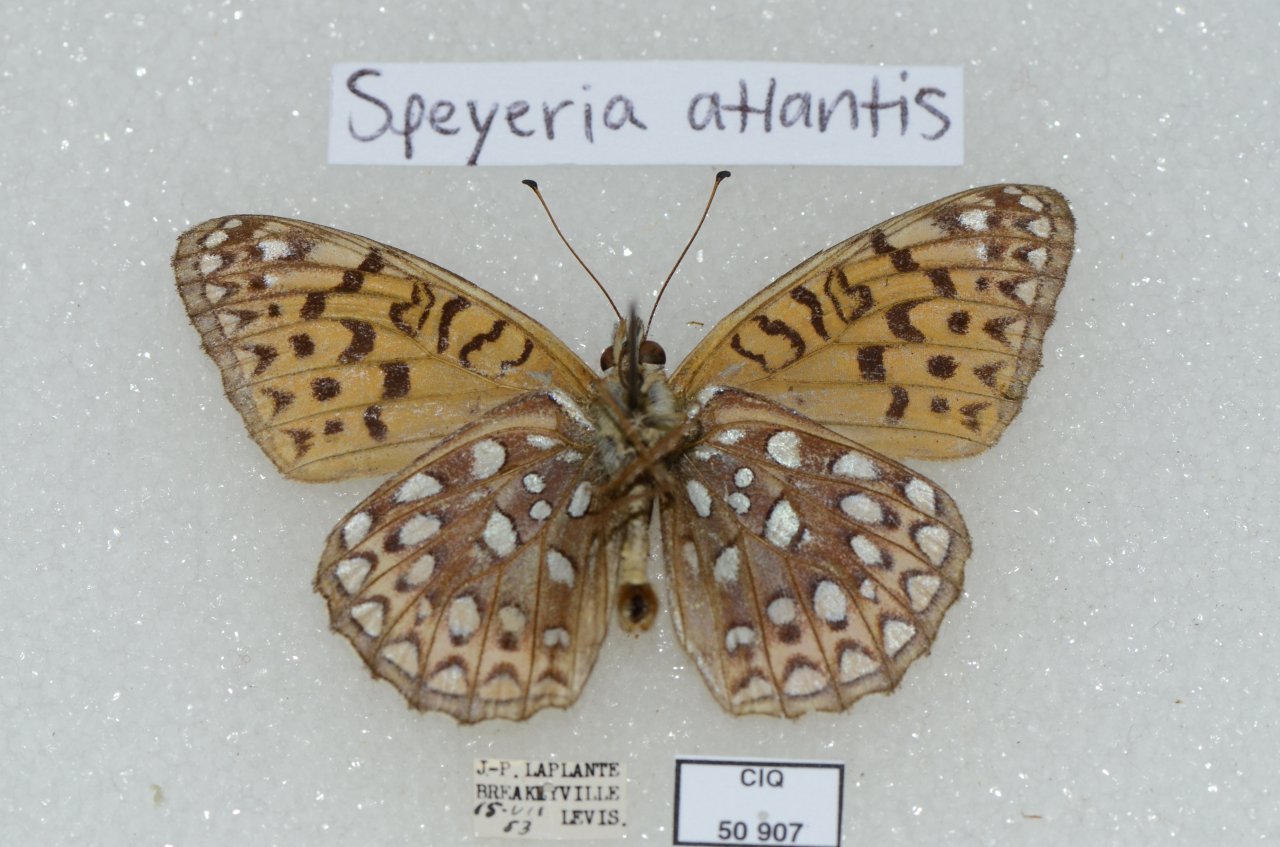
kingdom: Animalia
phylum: Arthropoda
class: Insecta
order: Lepidoptera
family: Nymphalidae
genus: Speyeria
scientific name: Speyeria atlantis
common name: Atlantis Fritillary
